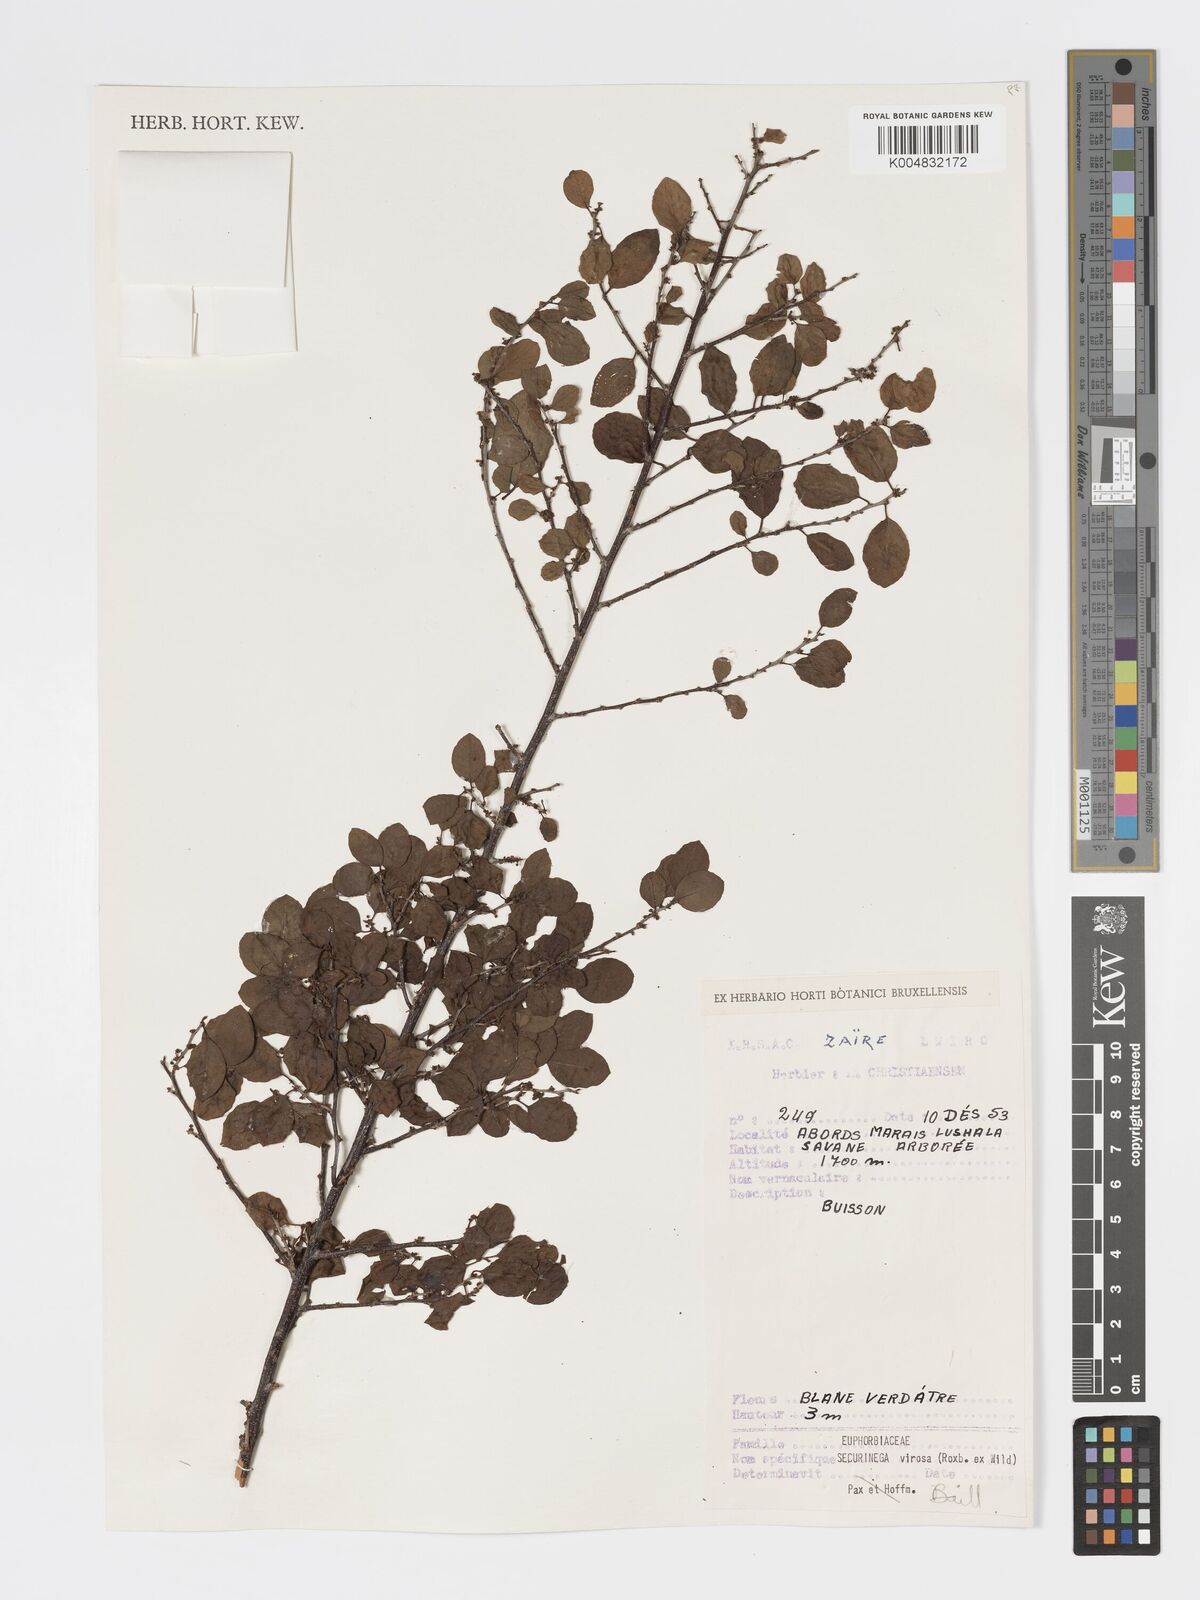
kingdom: Plantae
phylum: Tracheophyta
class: Magnoliopsida
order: Malpighiales
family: Phyllanthaceae
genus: Flueggea
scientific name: Flueggea virosa
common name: Common bushweed
